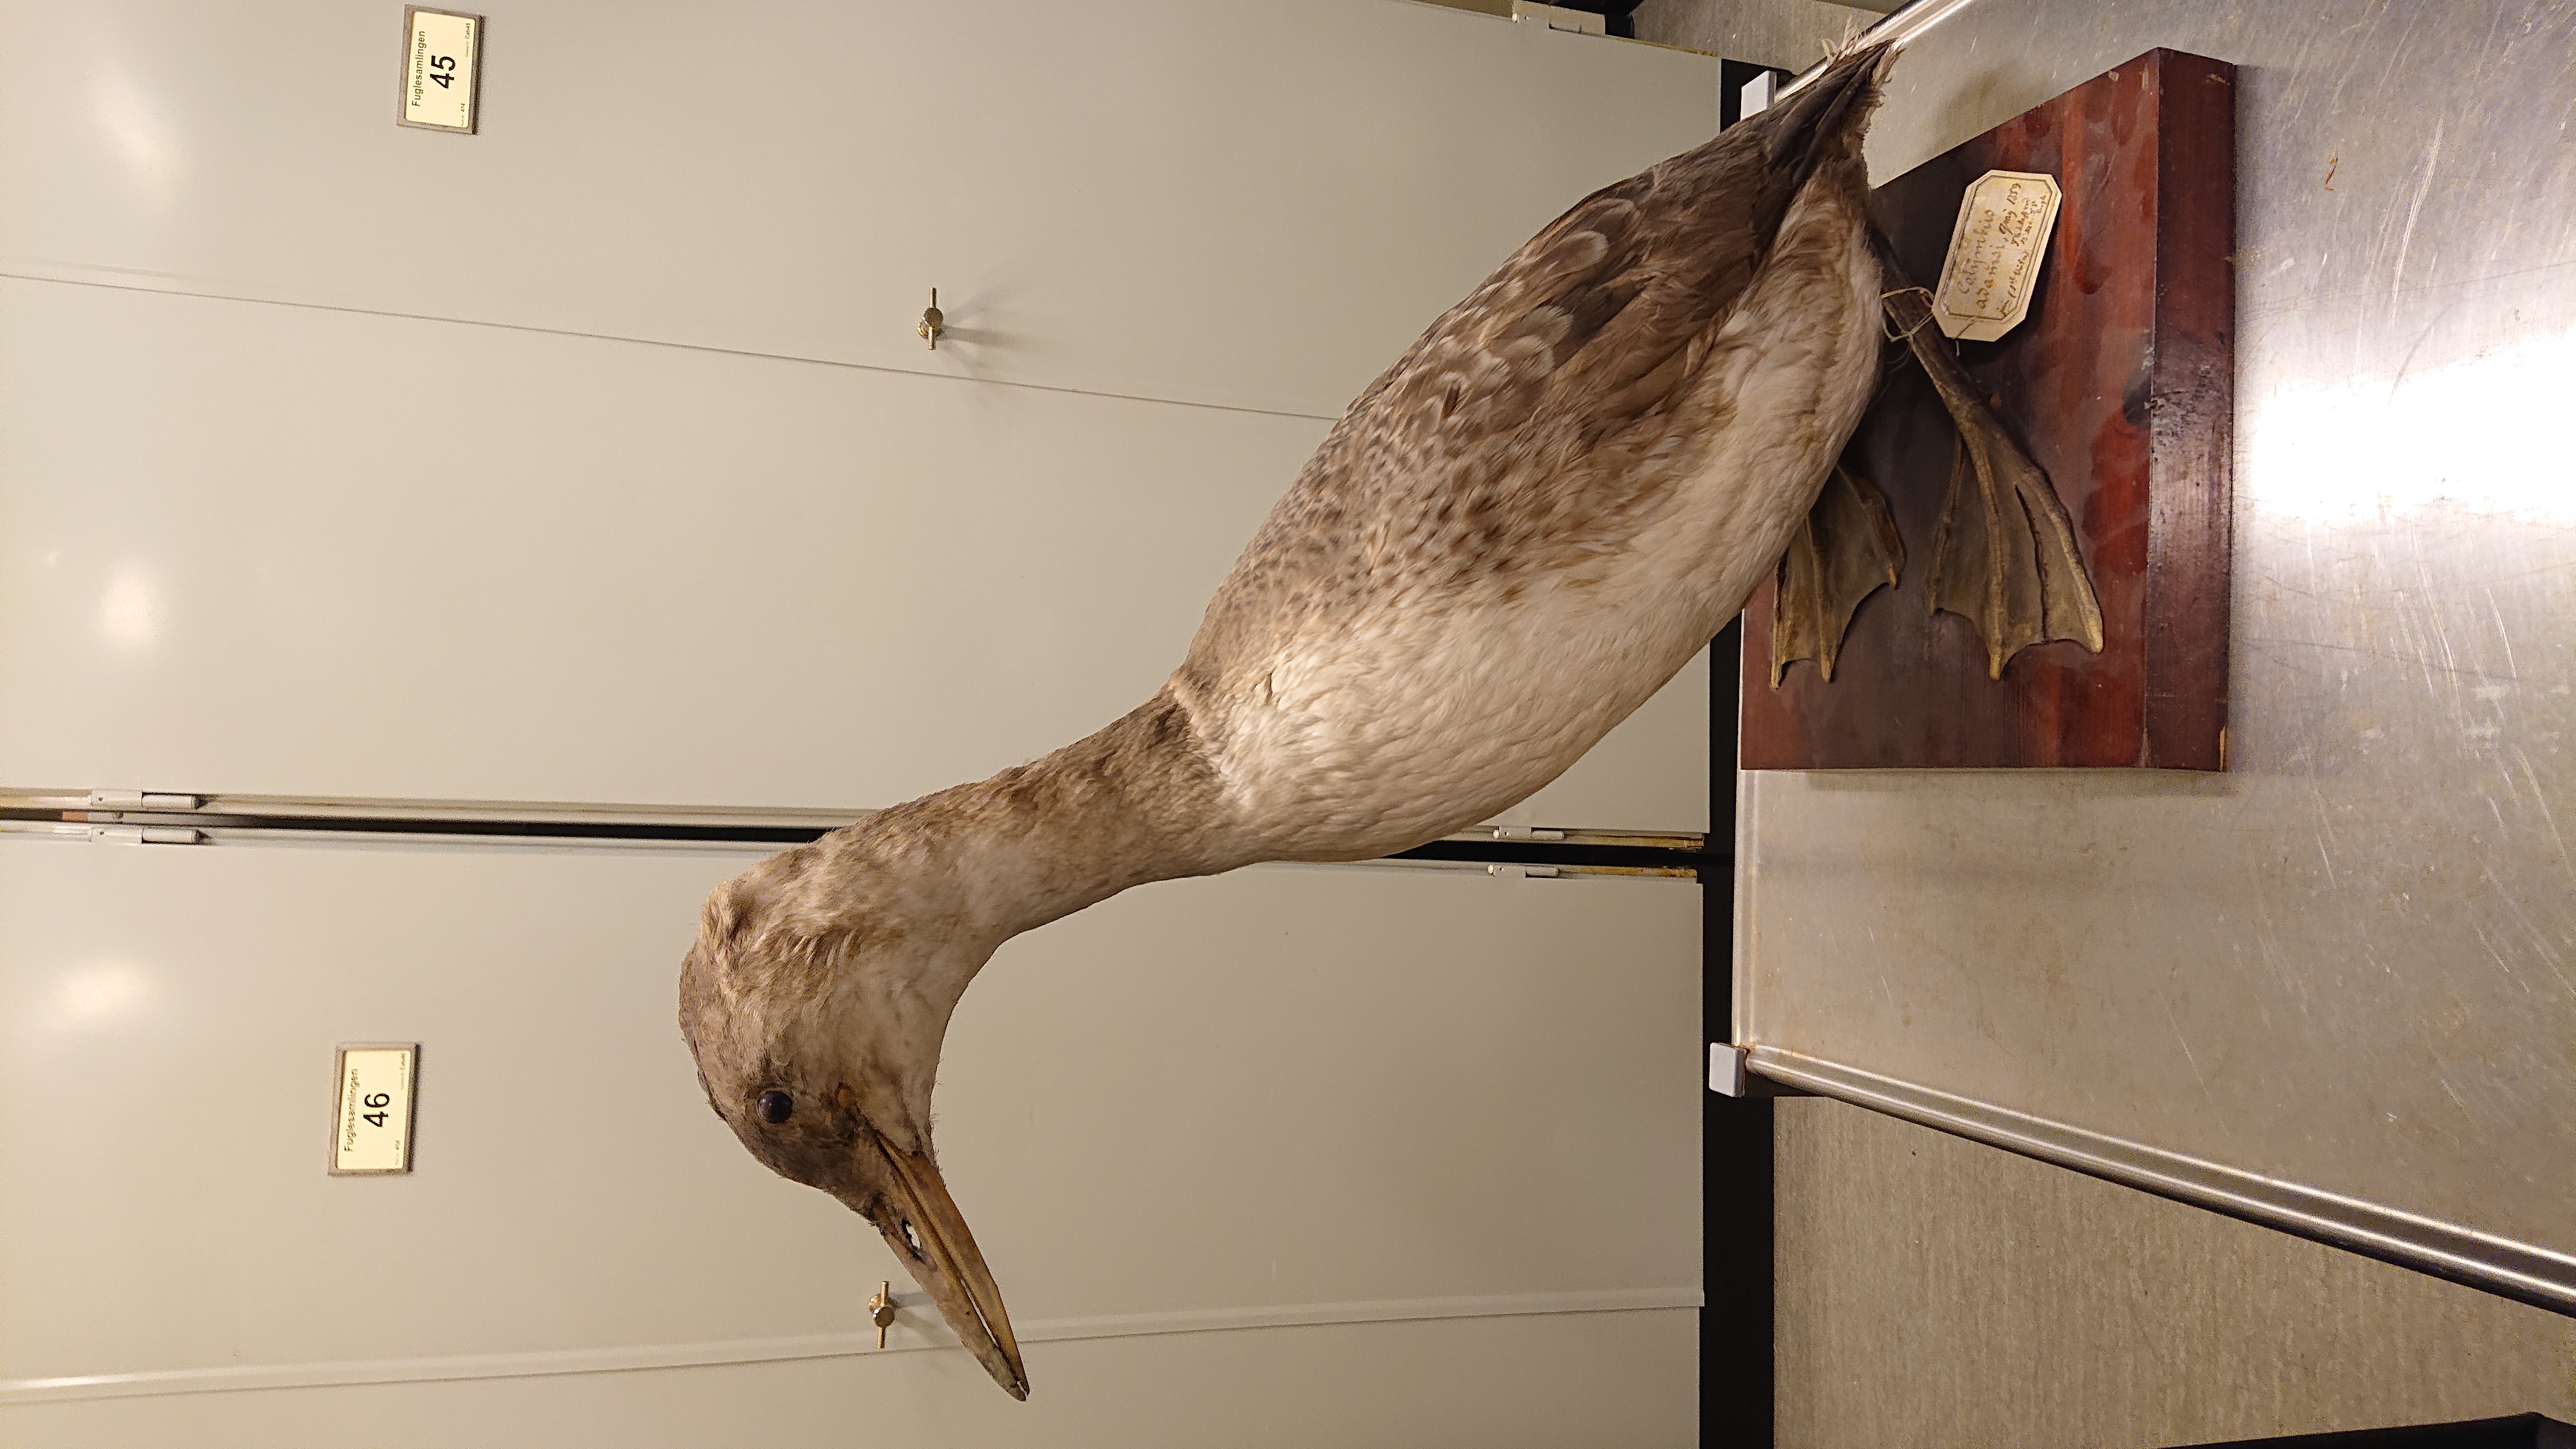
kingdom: Animalia
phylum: Chordata
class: Aves
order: Gaviiformes
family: Gaviidae
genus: Gavia
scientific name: Gavia adamsii
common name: Yellow-billed loon
